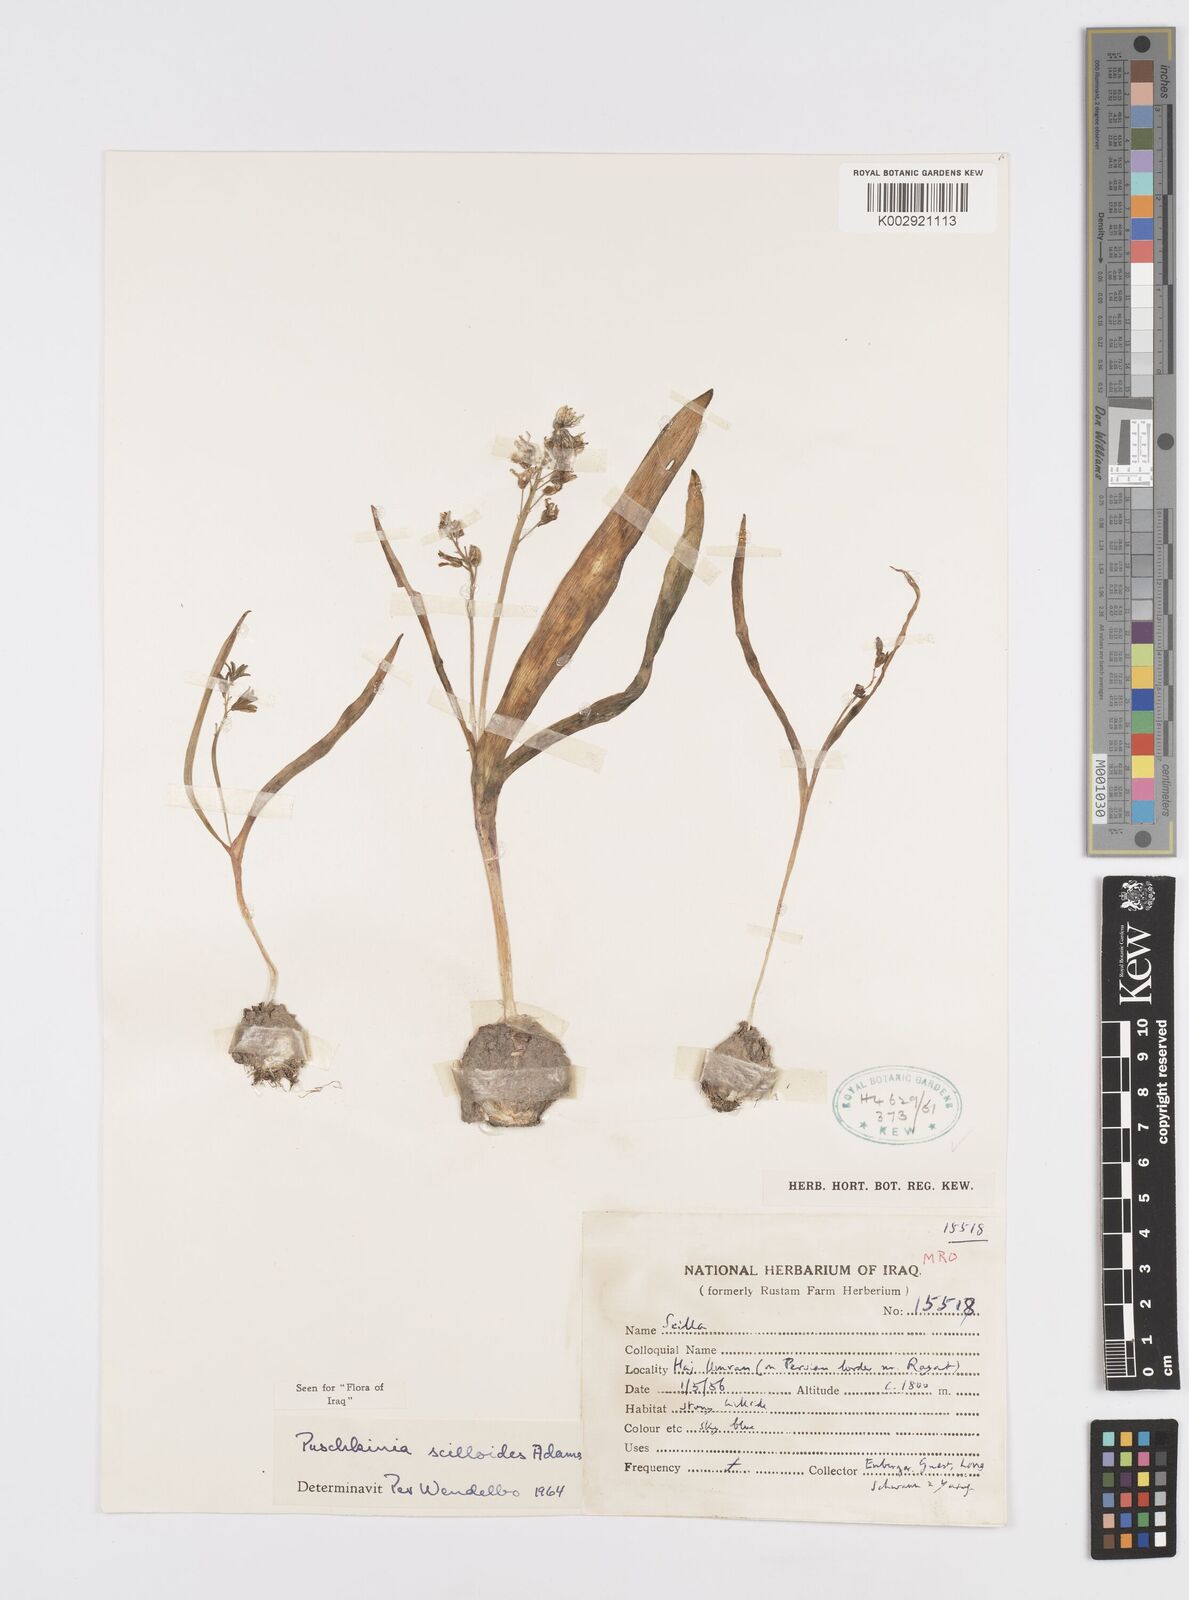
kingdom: Plantae
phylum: Tracheophyta
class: Liliopsida
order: Asparagales
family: Asparagaceae
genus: Puschkinia
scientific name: Puschkinia scilloides
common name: Striped squill
